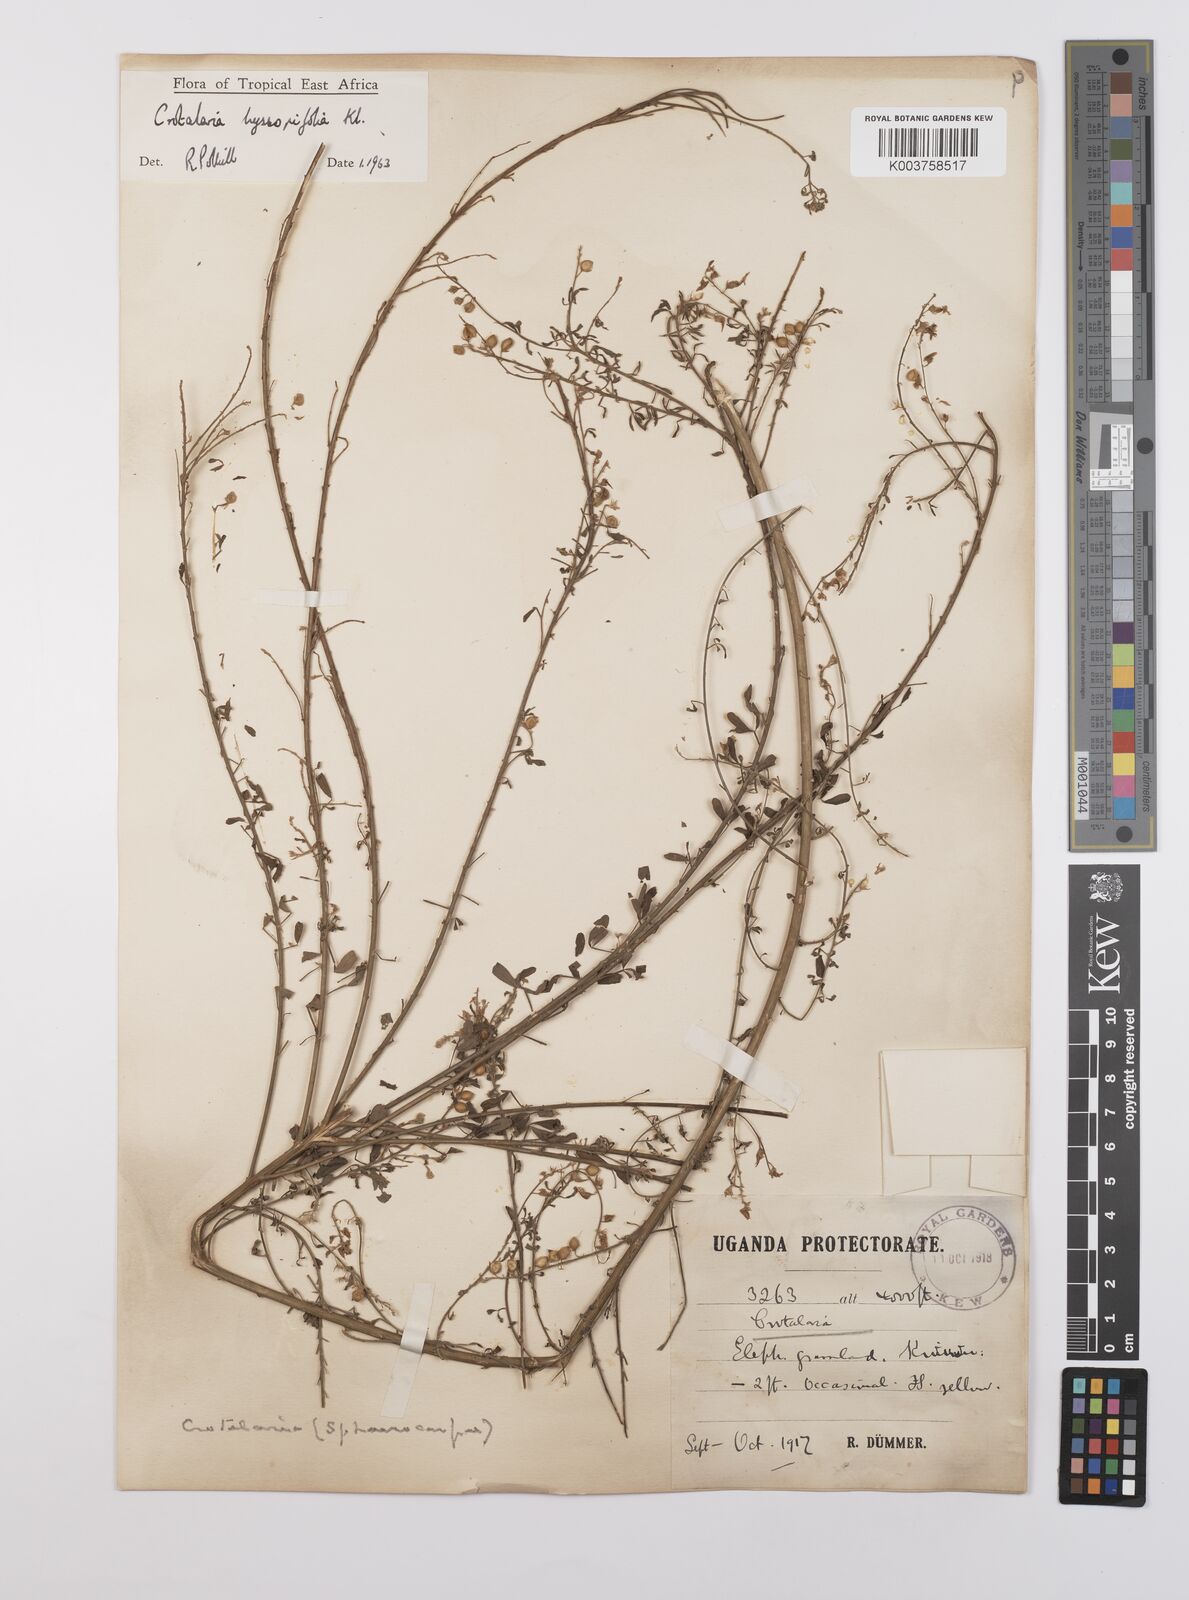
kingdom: Plantae
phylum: Tracheophyta
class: Magnoliopsida
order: Fabales
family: Fabaceae
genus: Crotalaria
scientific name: Crotalaria hyssopifolia
